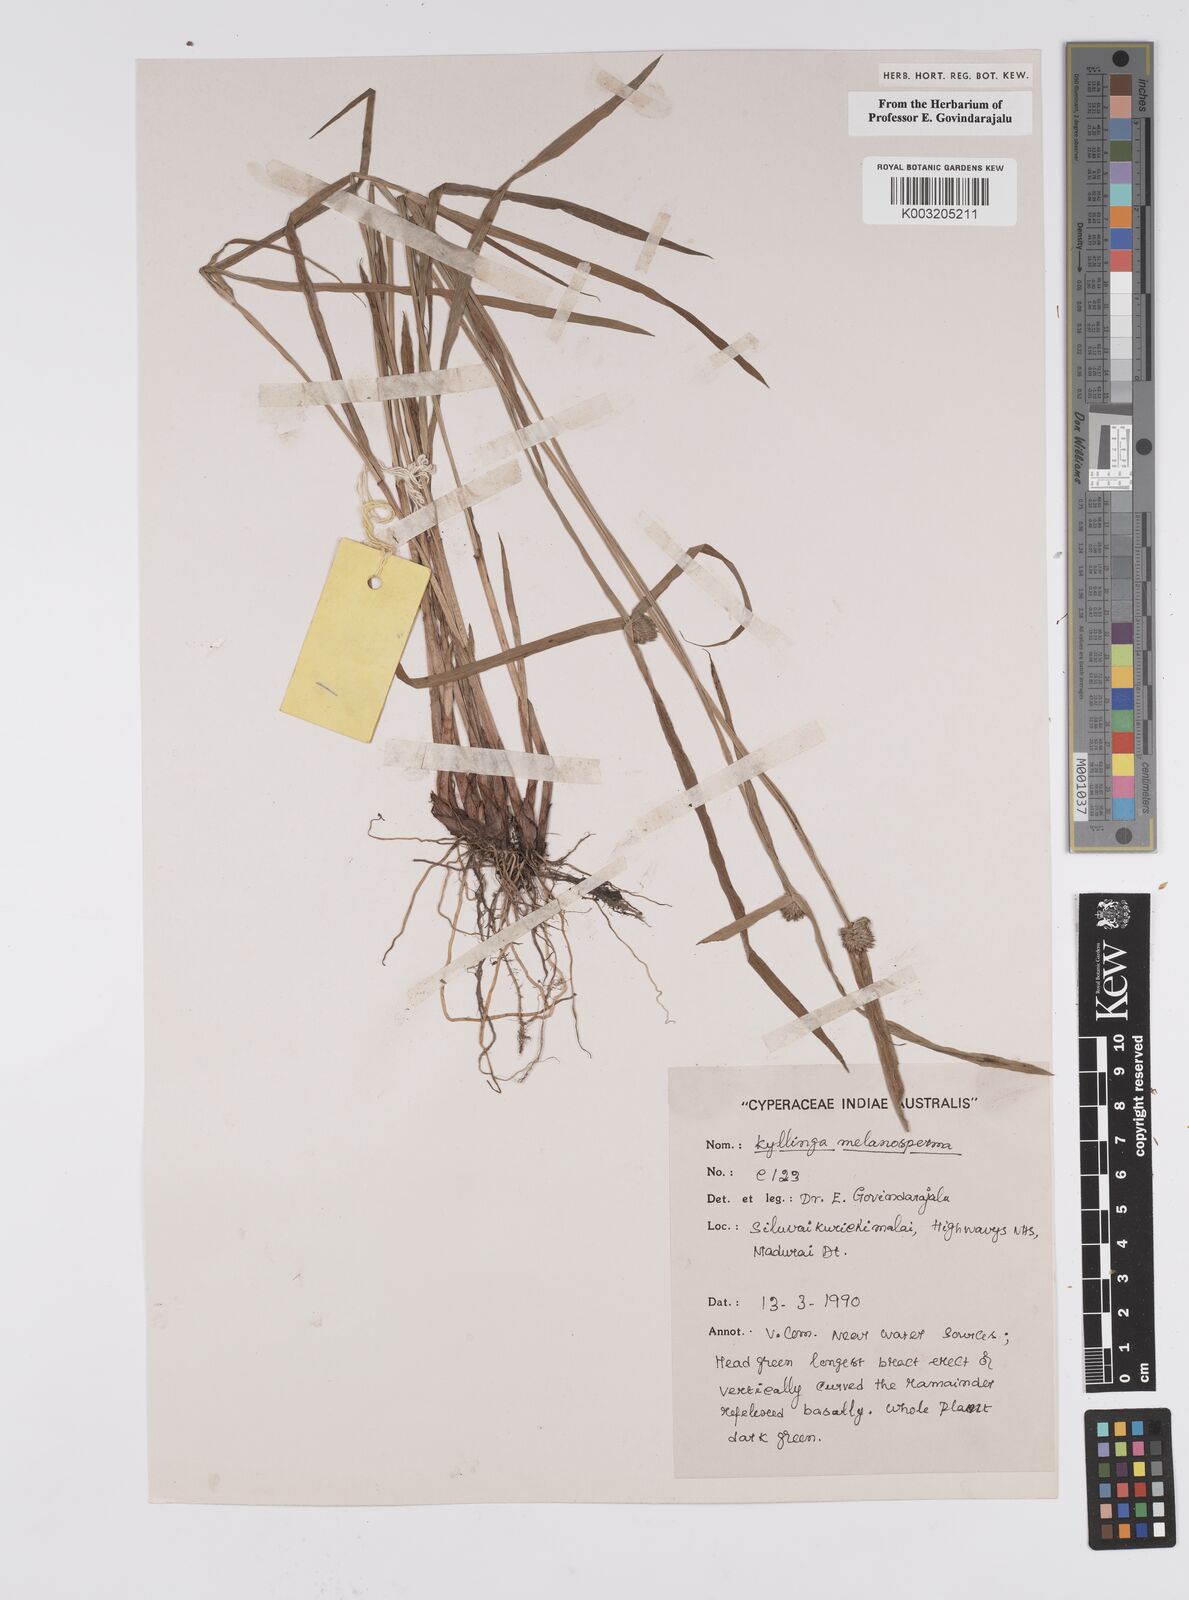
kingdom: Plantae
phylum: Tracheophyta
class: Liliopsida
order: Poales
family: Cyperaceae
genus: Cyperus
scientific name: Cyperus melanospermus
